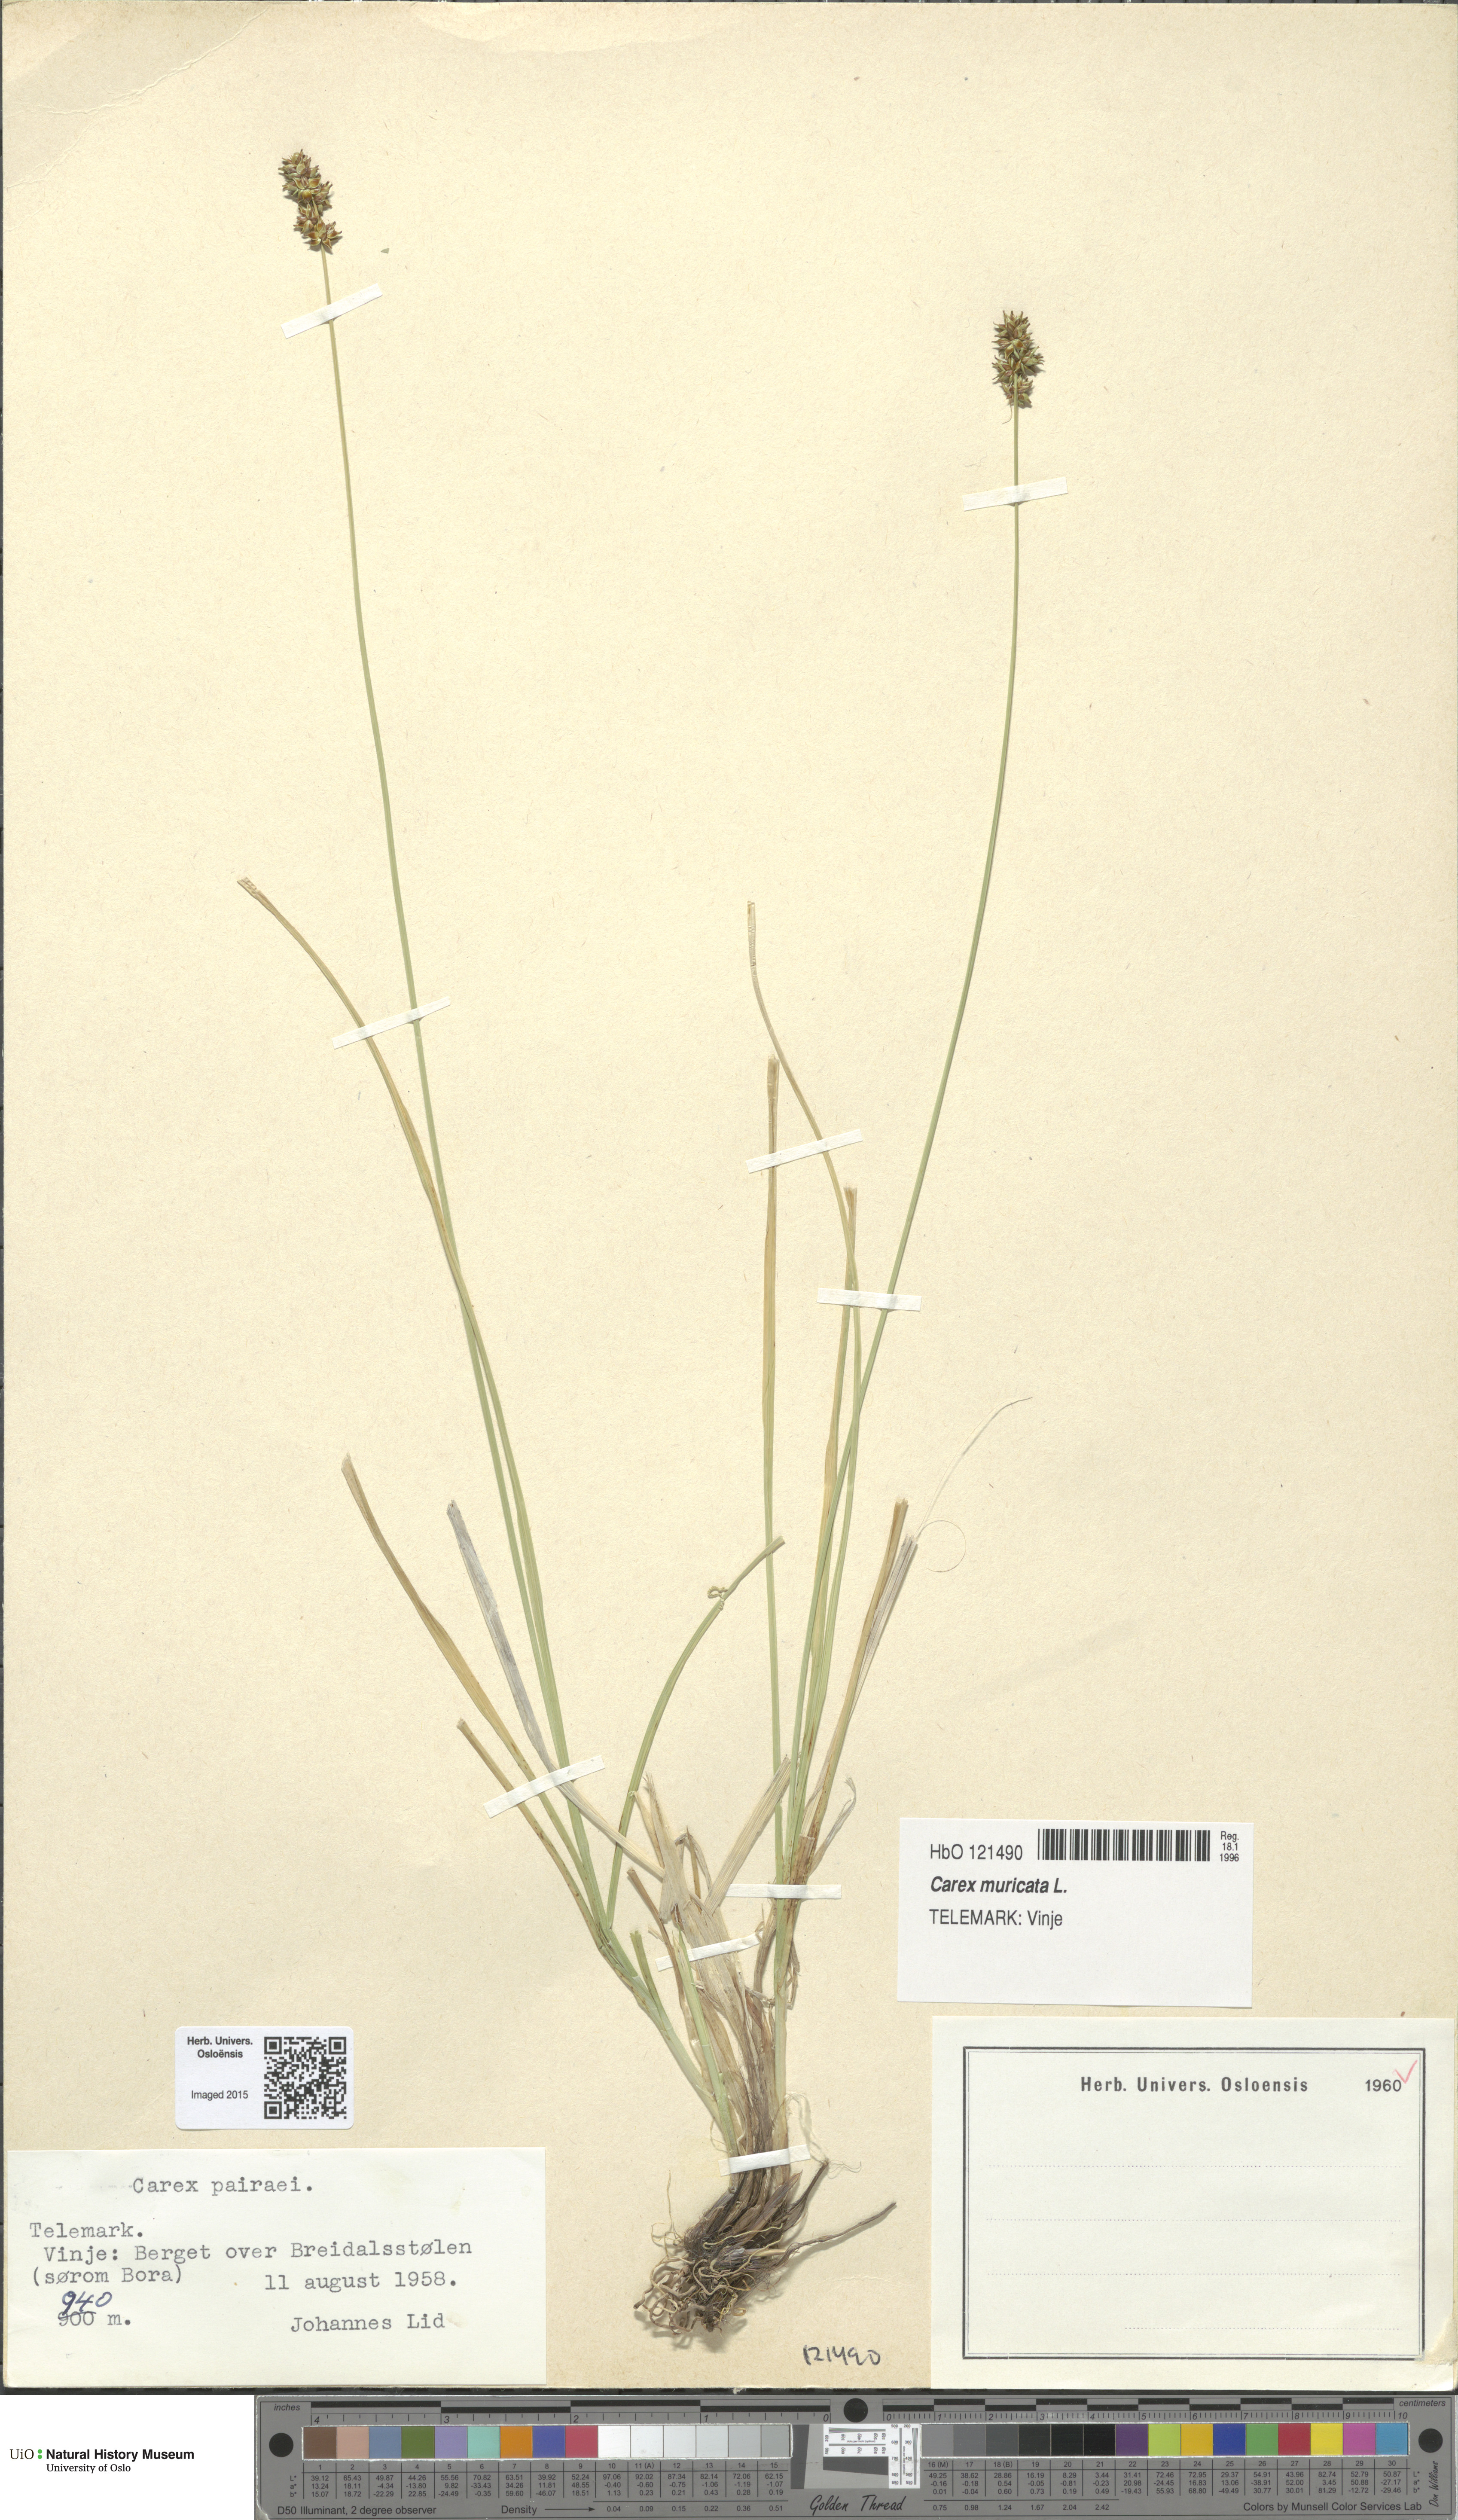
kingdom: Plantae
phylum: Tracheophyta
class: Liliopsida
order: Poales
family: Cyperaceae
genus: Carex
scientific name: Carex pairae
